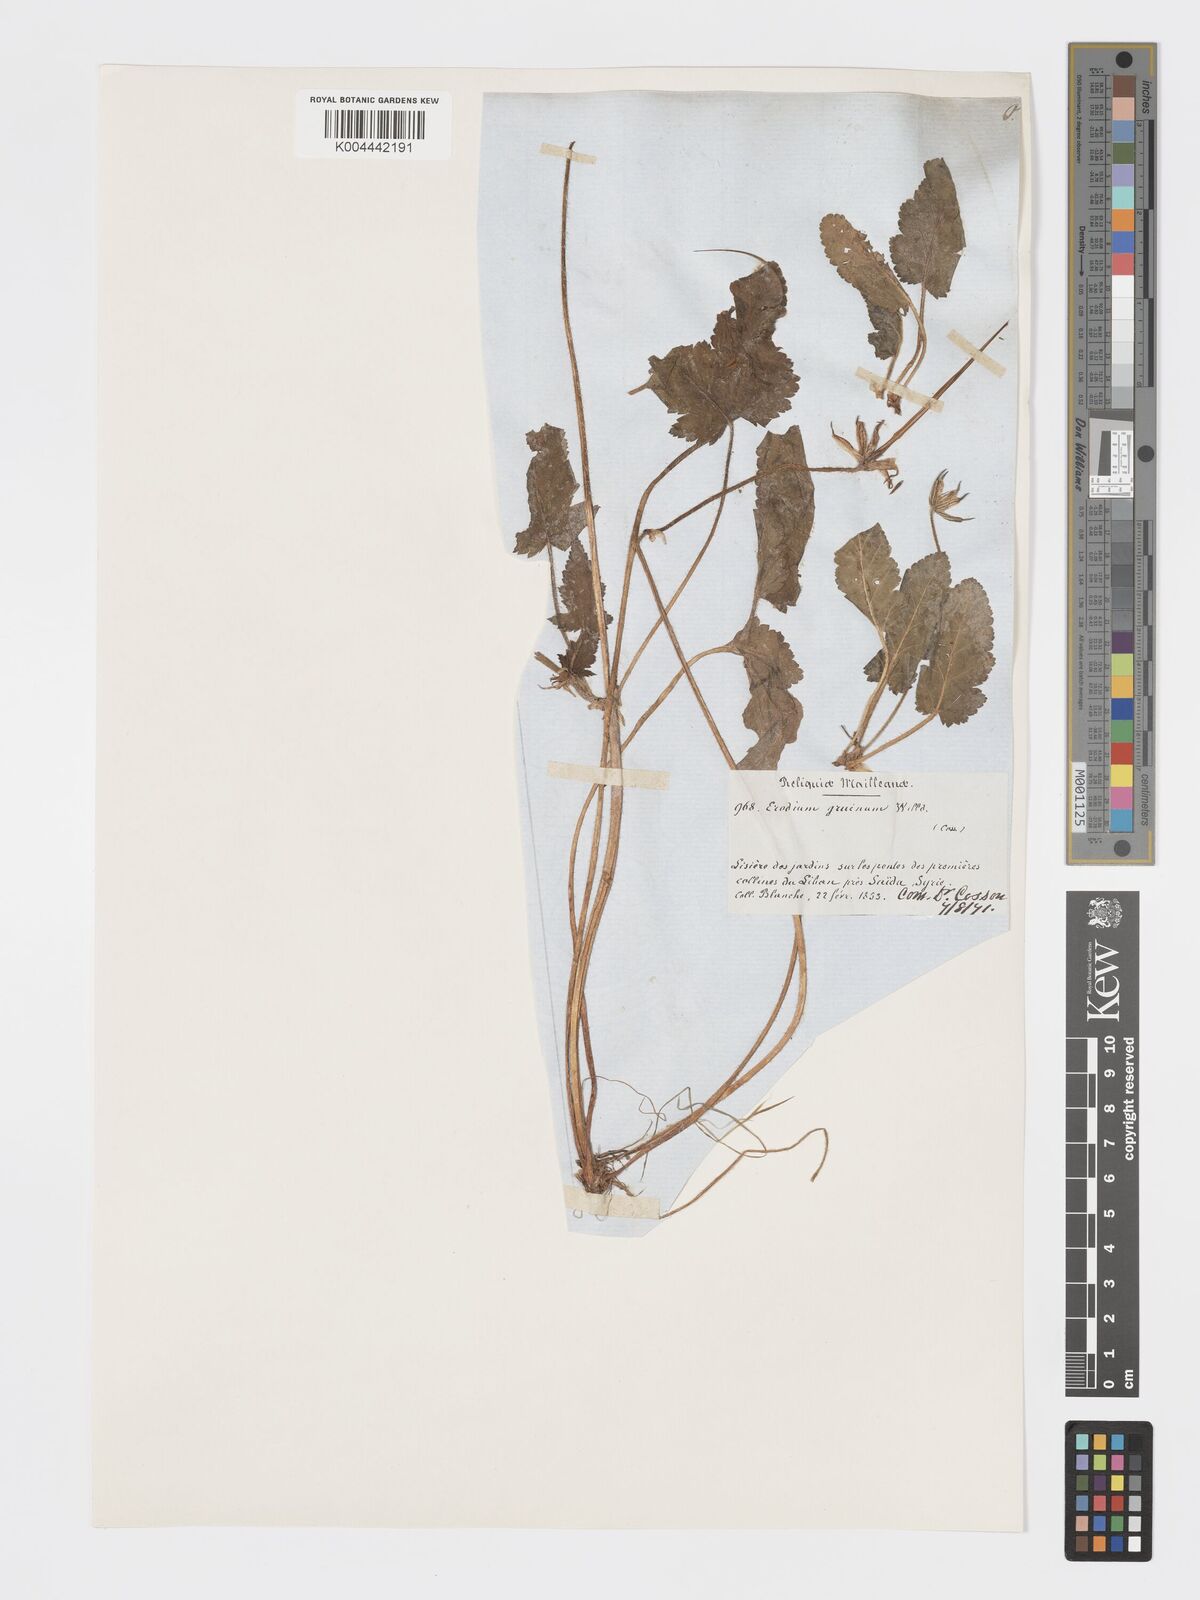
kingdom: Plantae
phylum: Tracheophyta
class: Magnoliopsida
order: Geraniales
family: Geraniaceae
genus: Erodium
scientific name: Erodium gruinum
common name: Iranian stork's bill
